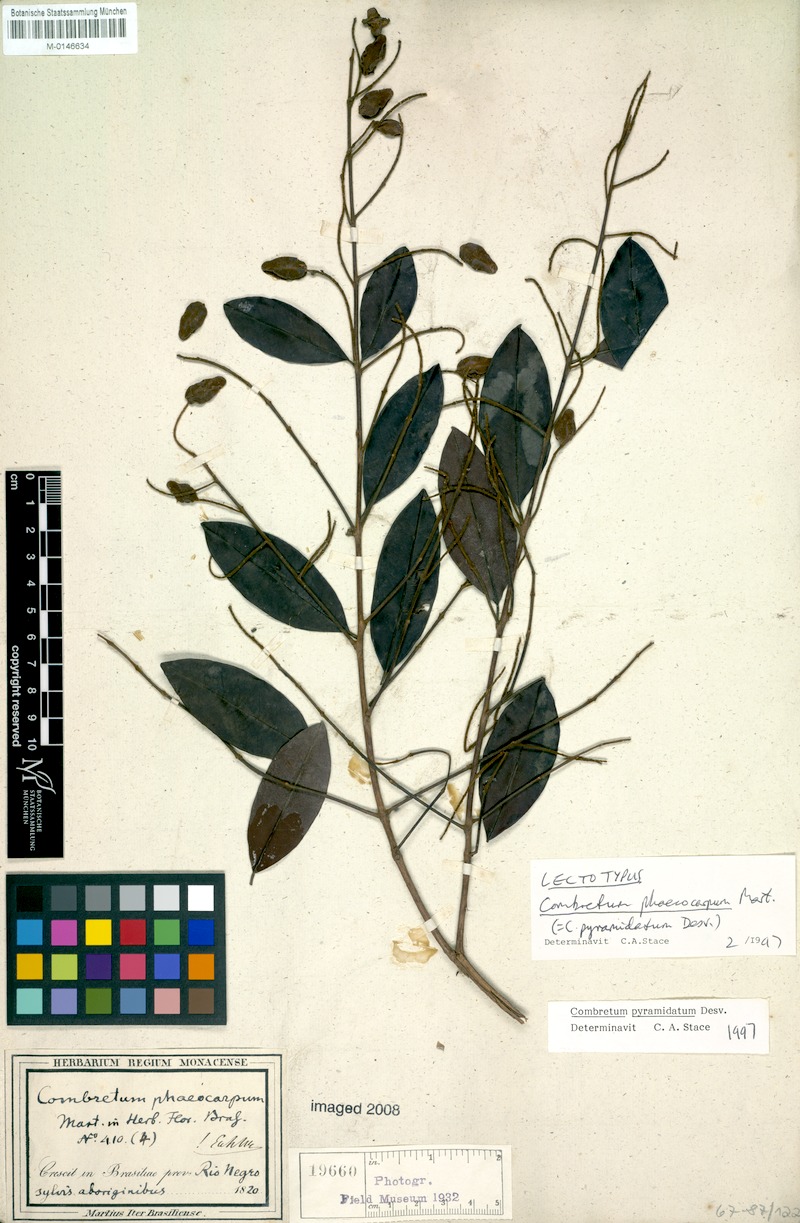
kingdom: Plantae
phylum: Tracheophyta
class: Magnoliopsida
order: Myrtales
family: Combretaceae
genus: Combretum
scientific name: Combretum pyramidatum
